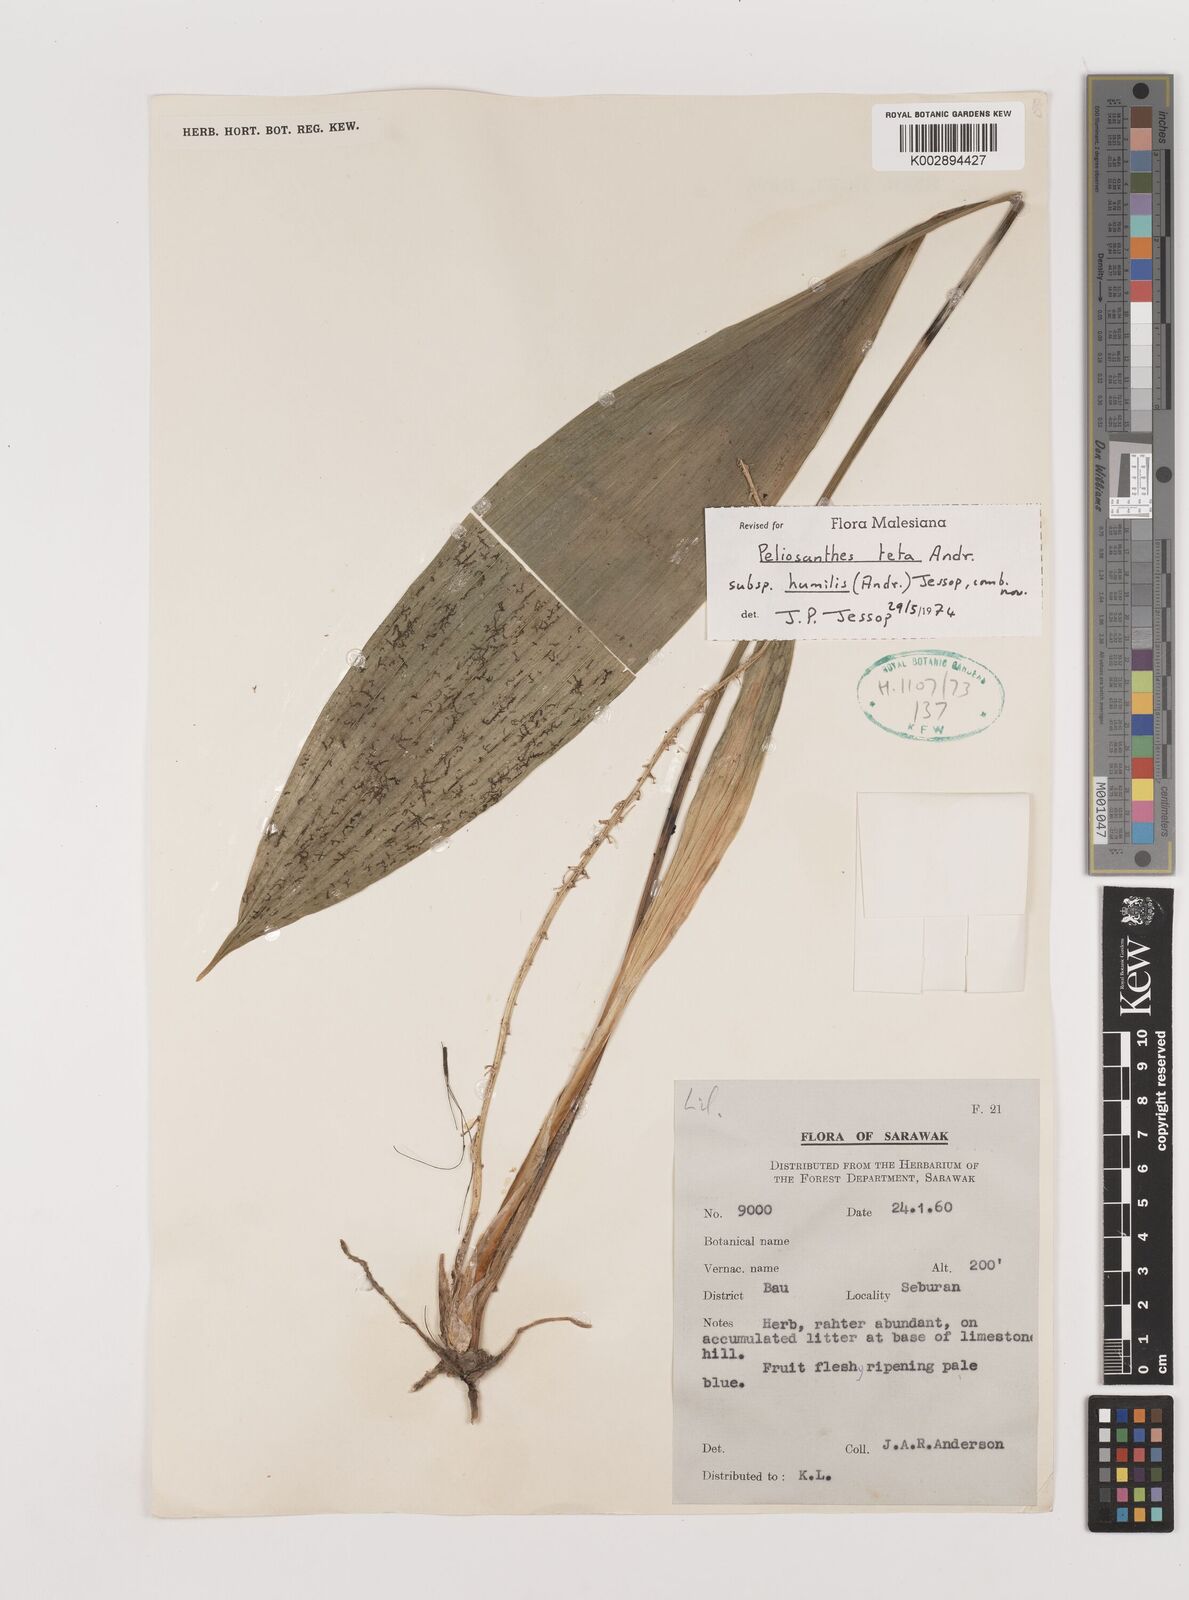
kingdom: Plantae
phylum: Tracheophyta
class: Liliopsida
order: Asparagales
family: Asparagaceae
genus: Peliosanthes
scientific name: Peliosanthes teta
